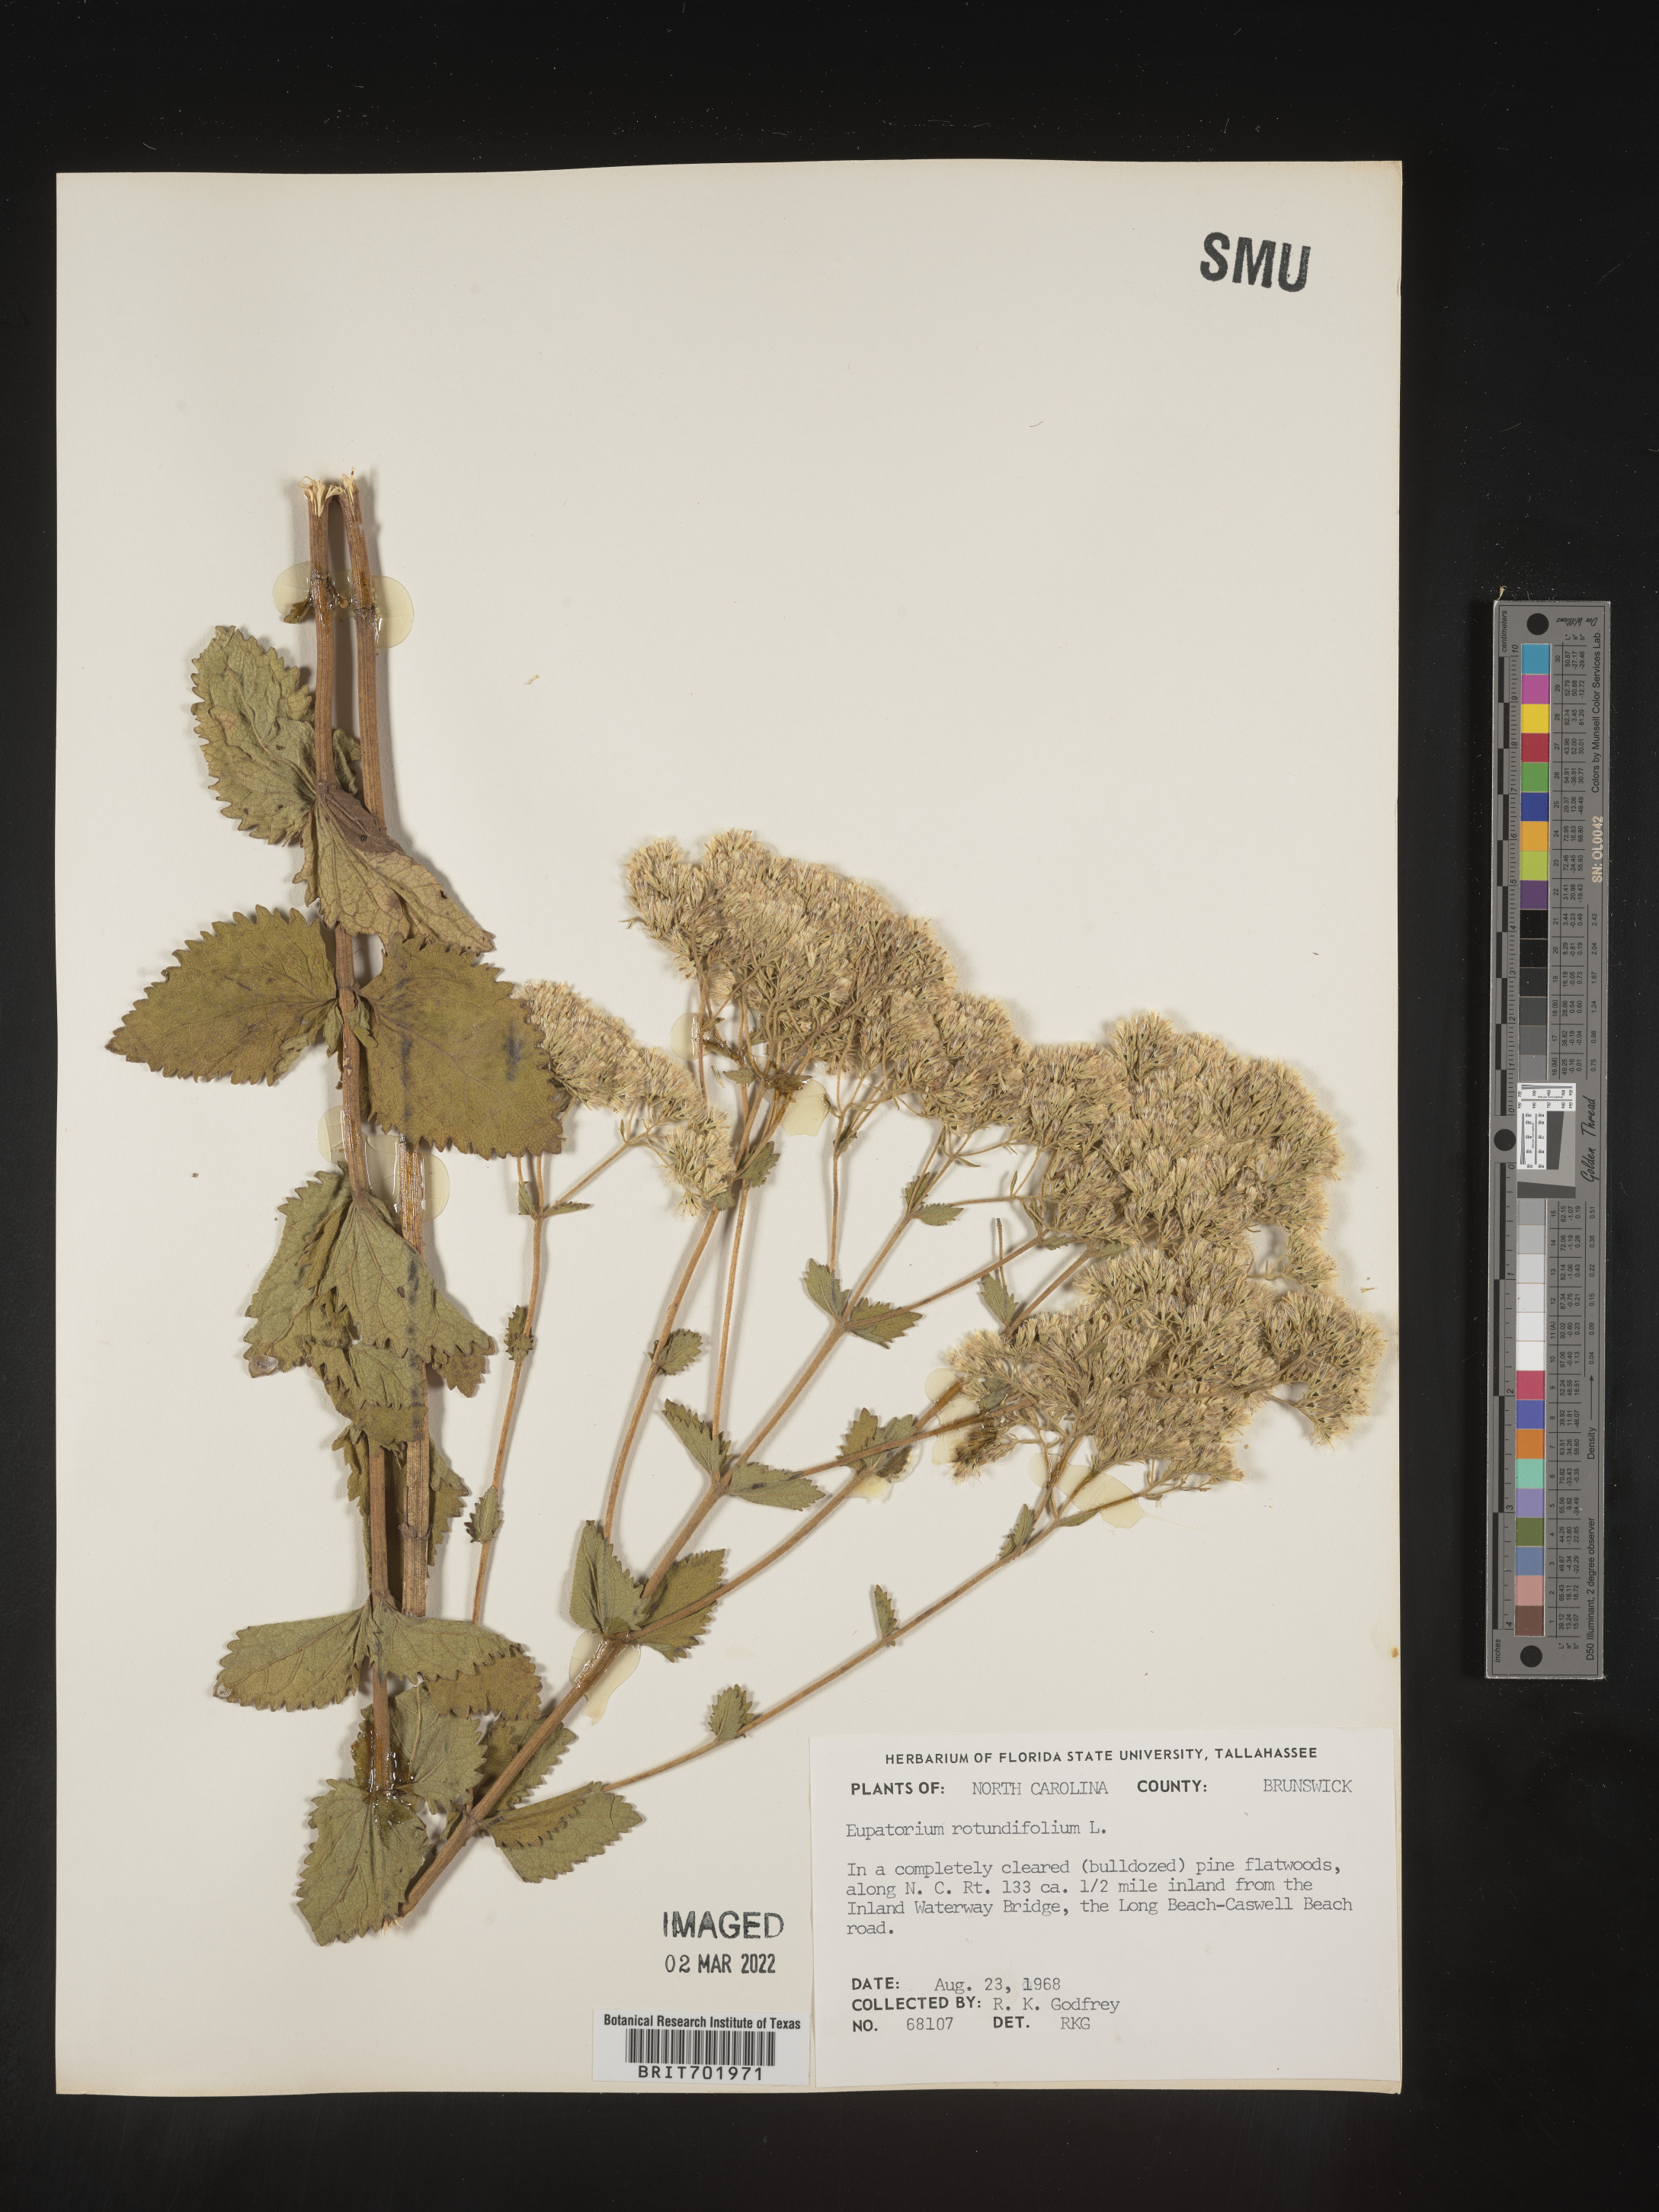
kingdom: Plantae
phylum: Tracheophyta
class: Magnoliopsida
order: Asterales
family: Asteraceae
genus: Eupatorium
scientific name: Eupatorium rotundifolium
